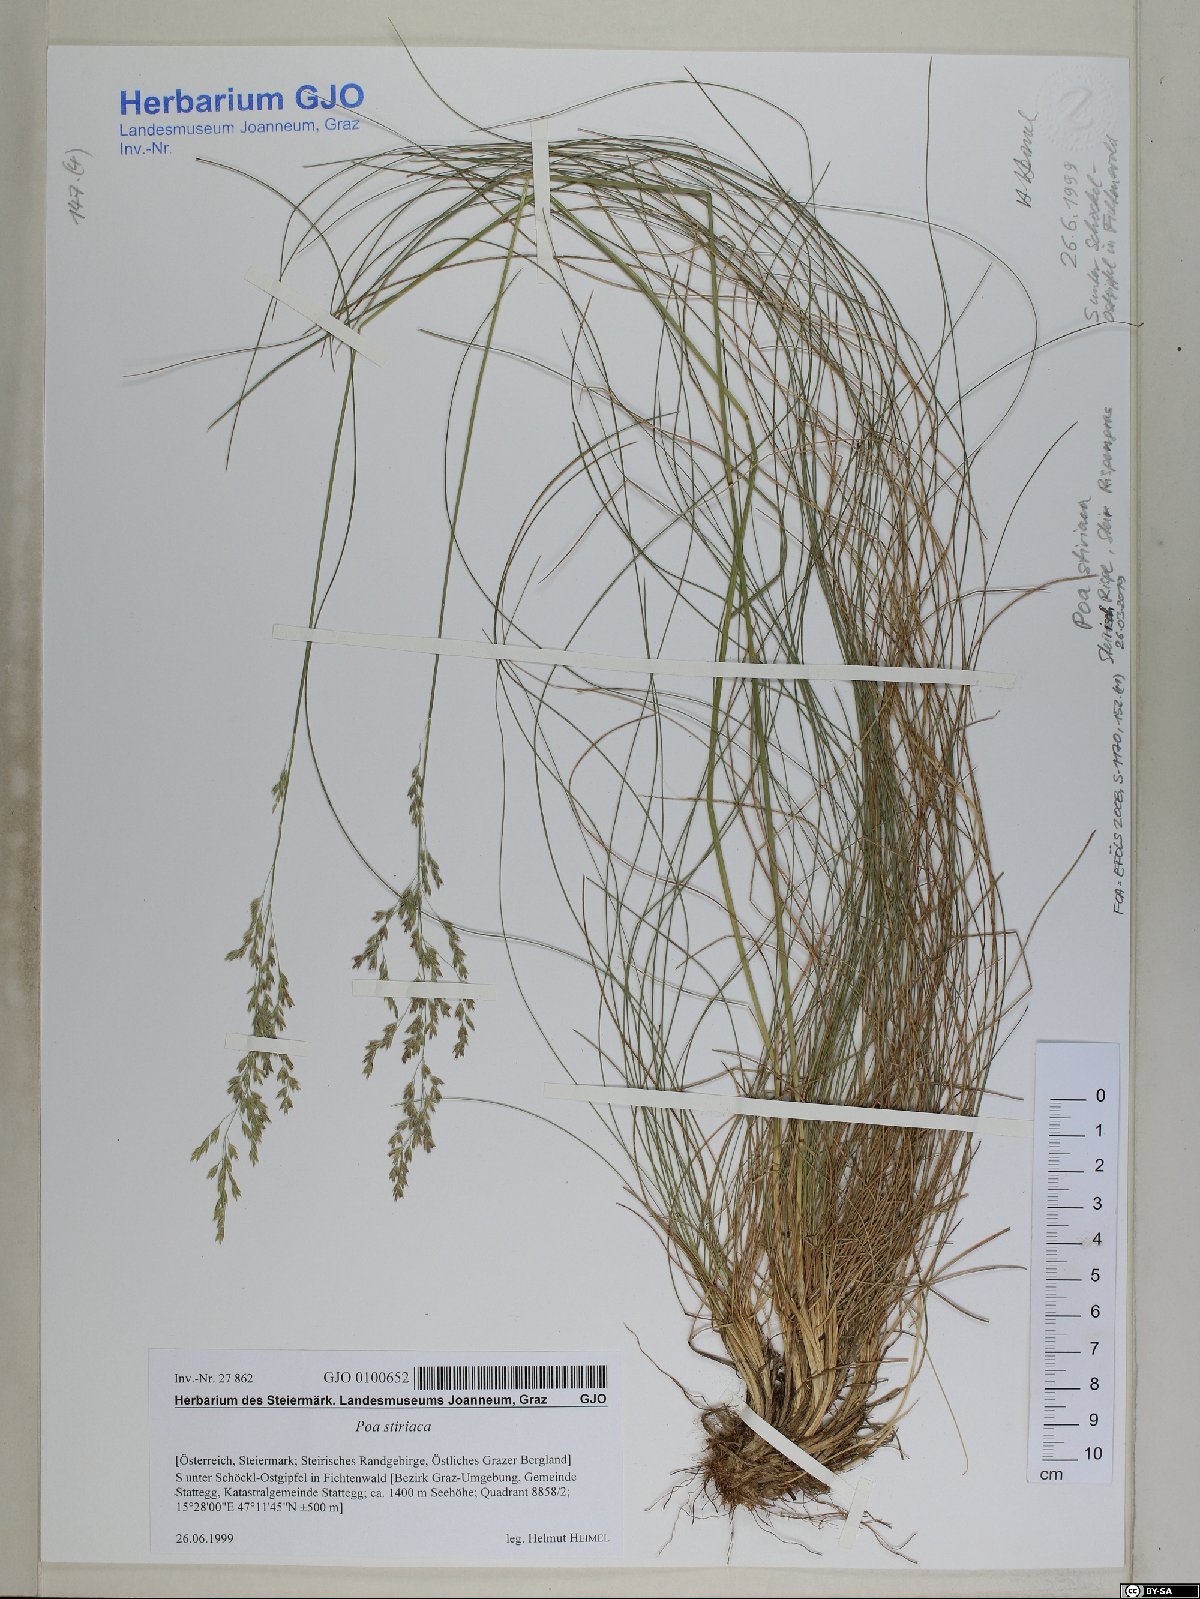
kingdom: Plantae
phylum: Tracheophyta
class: Liliopsida
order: Poales
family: Poaceae
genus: Poa
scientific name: Poa stiriaca
